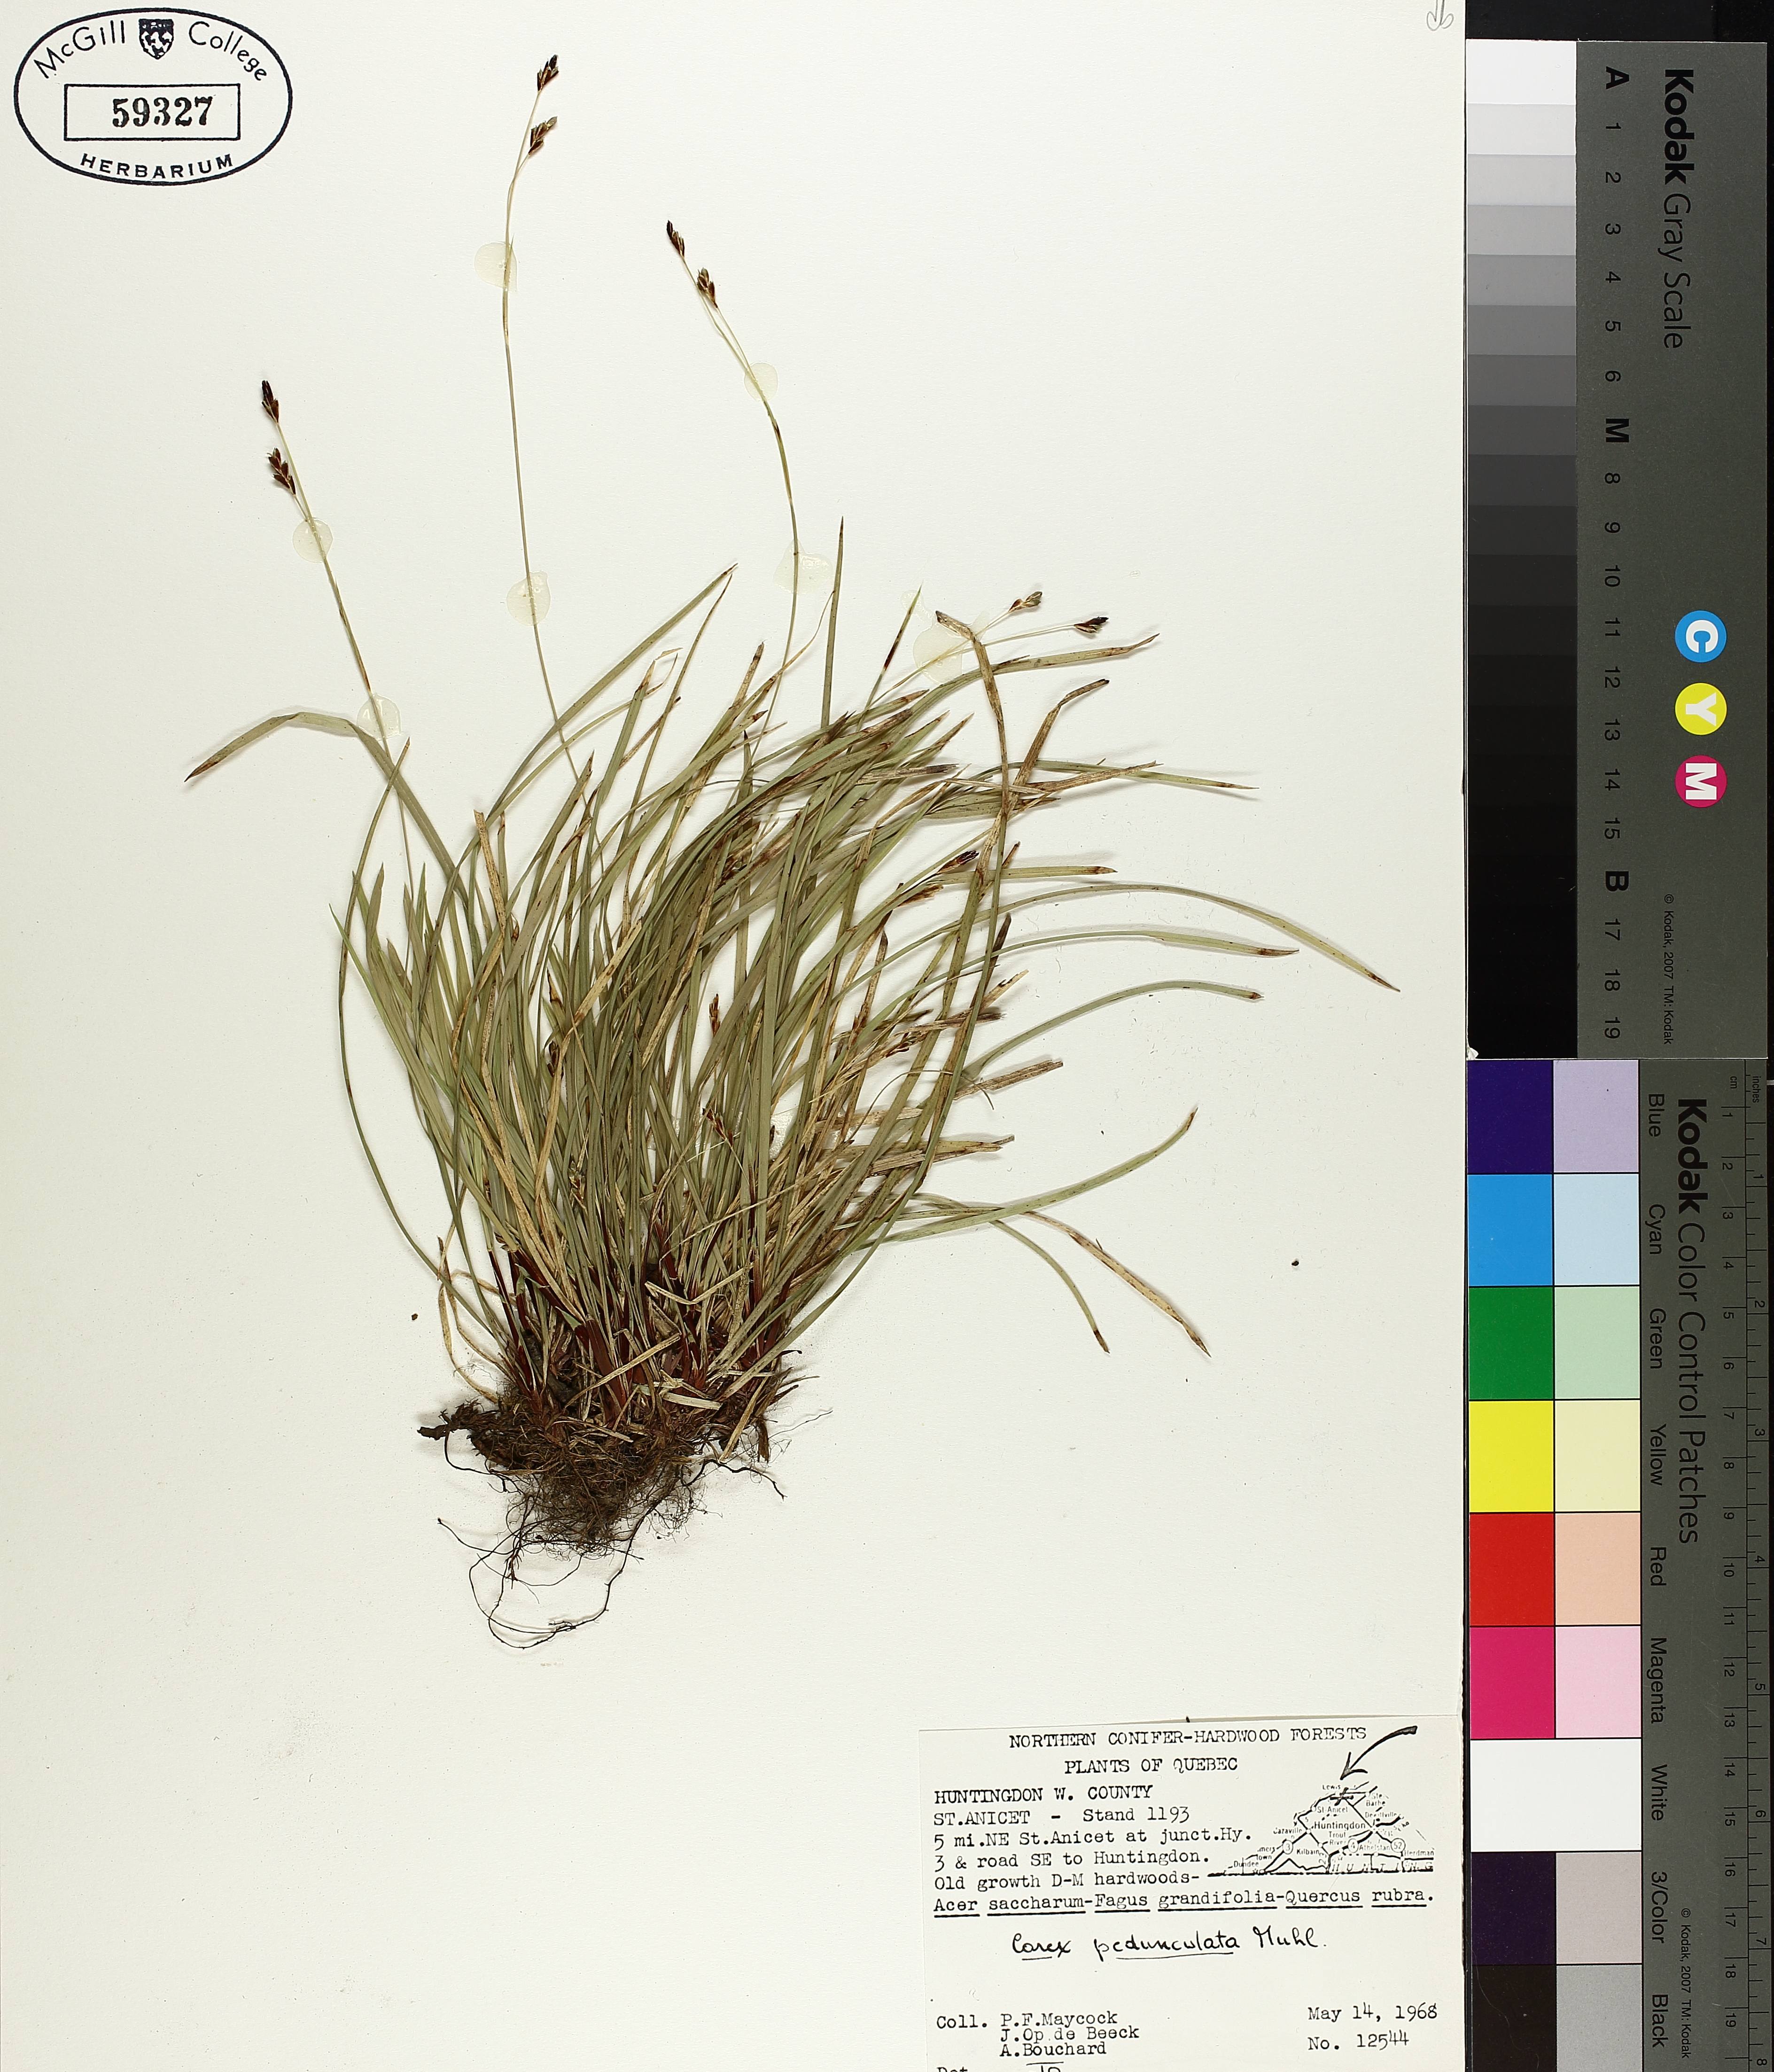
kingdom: Plantae
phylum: Tracheophyta
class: Liliopsida
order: Poales
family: Cyperaceae
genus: Carex
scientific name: Carex pedunculata
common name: Pedunculate sedge
